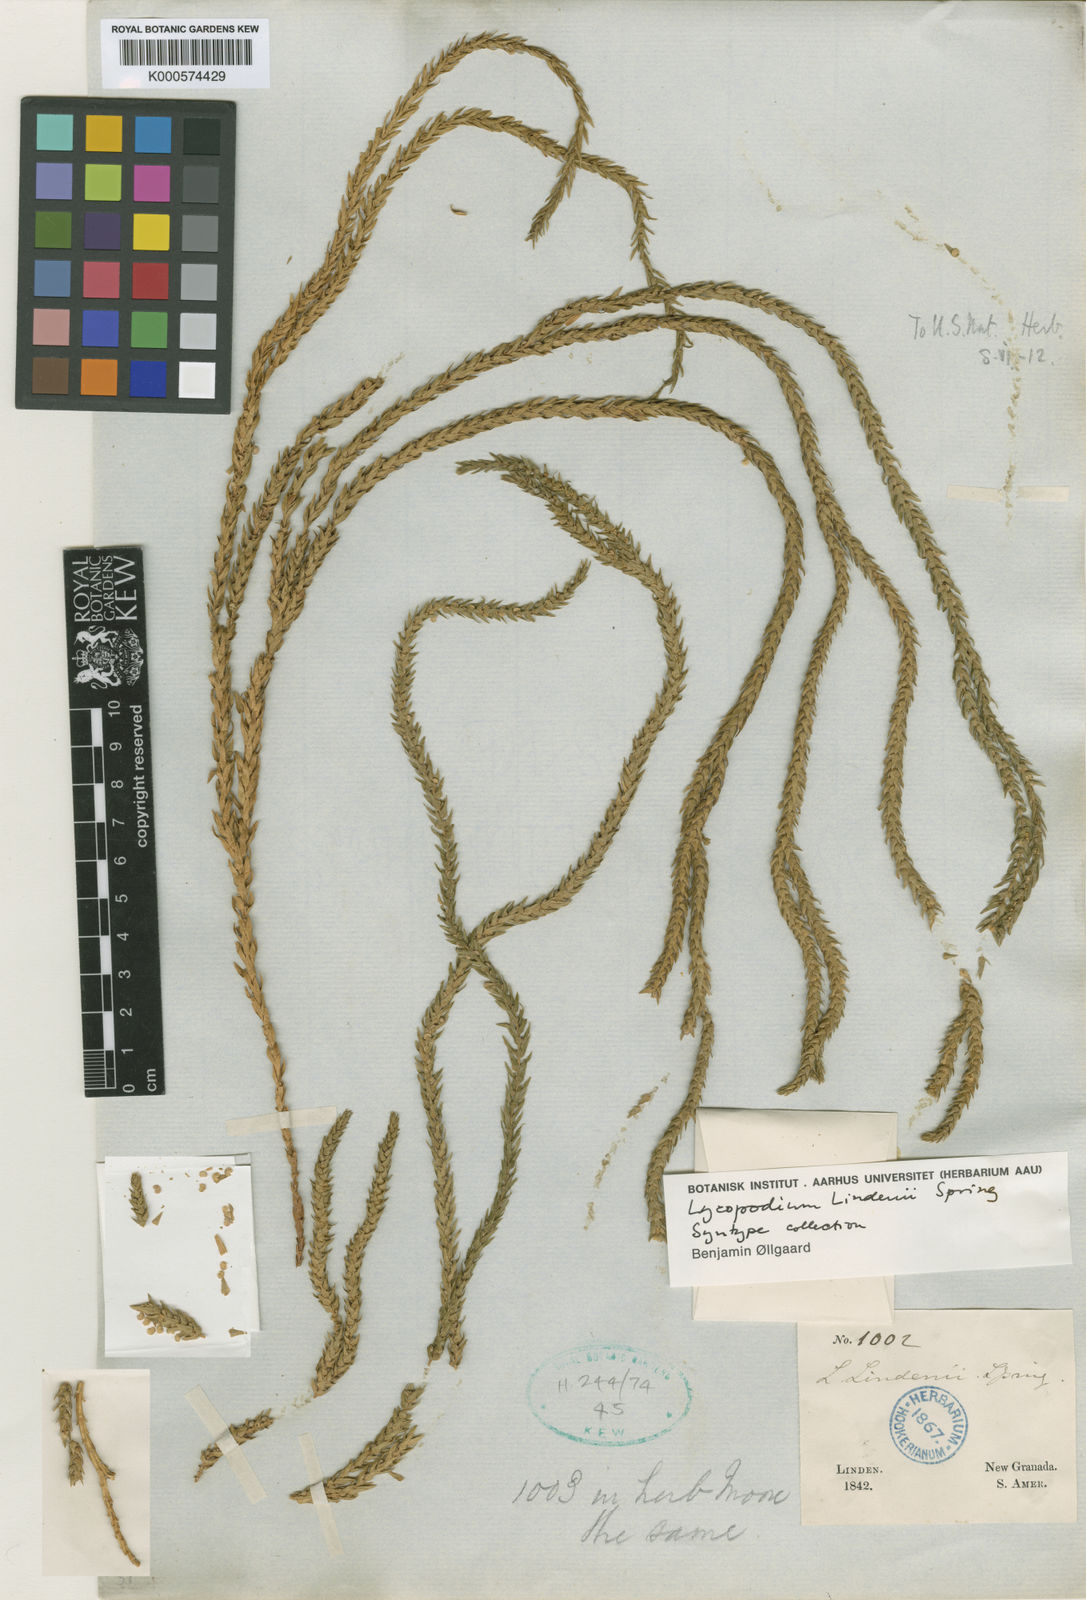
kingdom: Plantae
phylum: Tracheophyta
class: Lycopodiopsida
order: Lycopodiales
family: Lycopodiaceae
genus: Phlegmariurus
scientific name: Phlegmariurus lindenii
